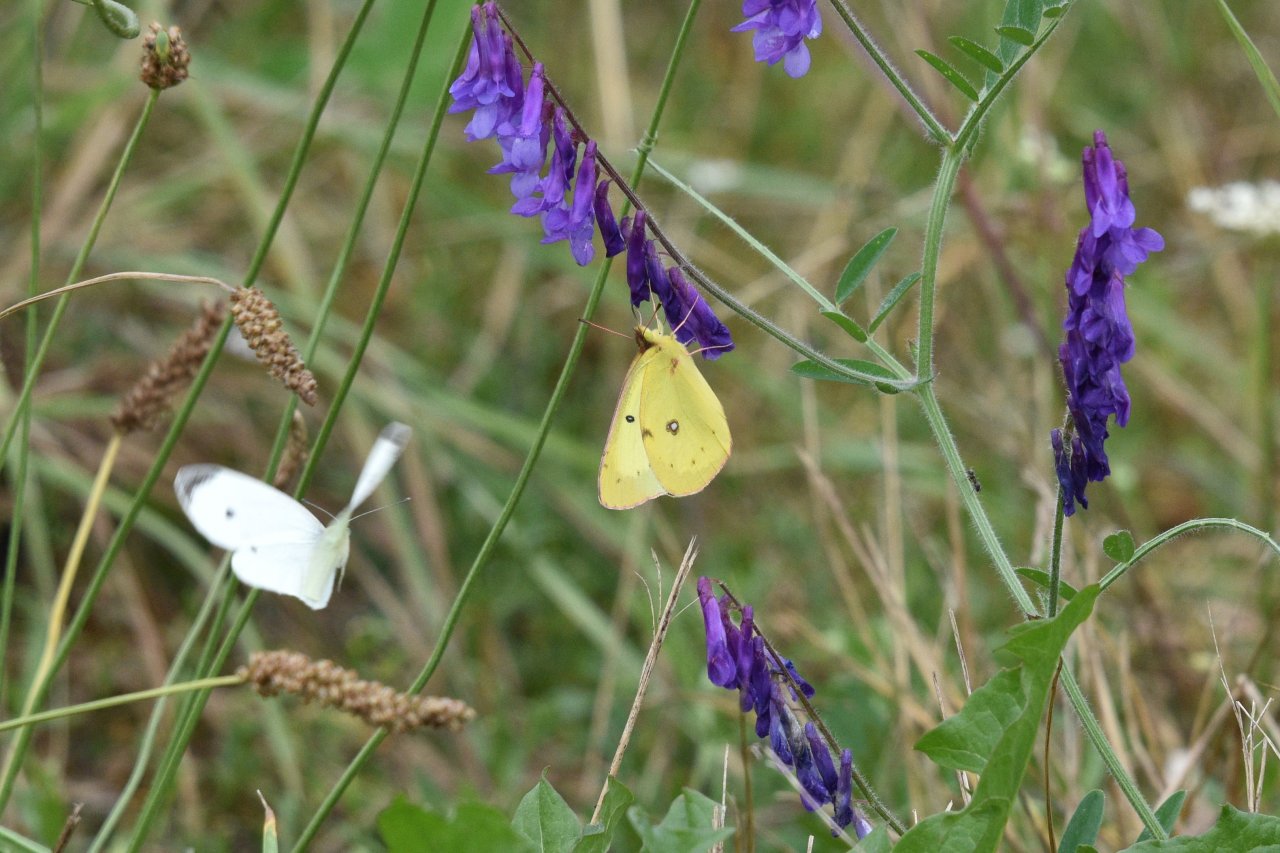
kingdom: Animalia
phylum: Arthropoda
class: Insecta
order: Lepidoptera
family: Pieridae
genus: Colias
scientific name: Colias philodice
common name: Clouded Sulphur
